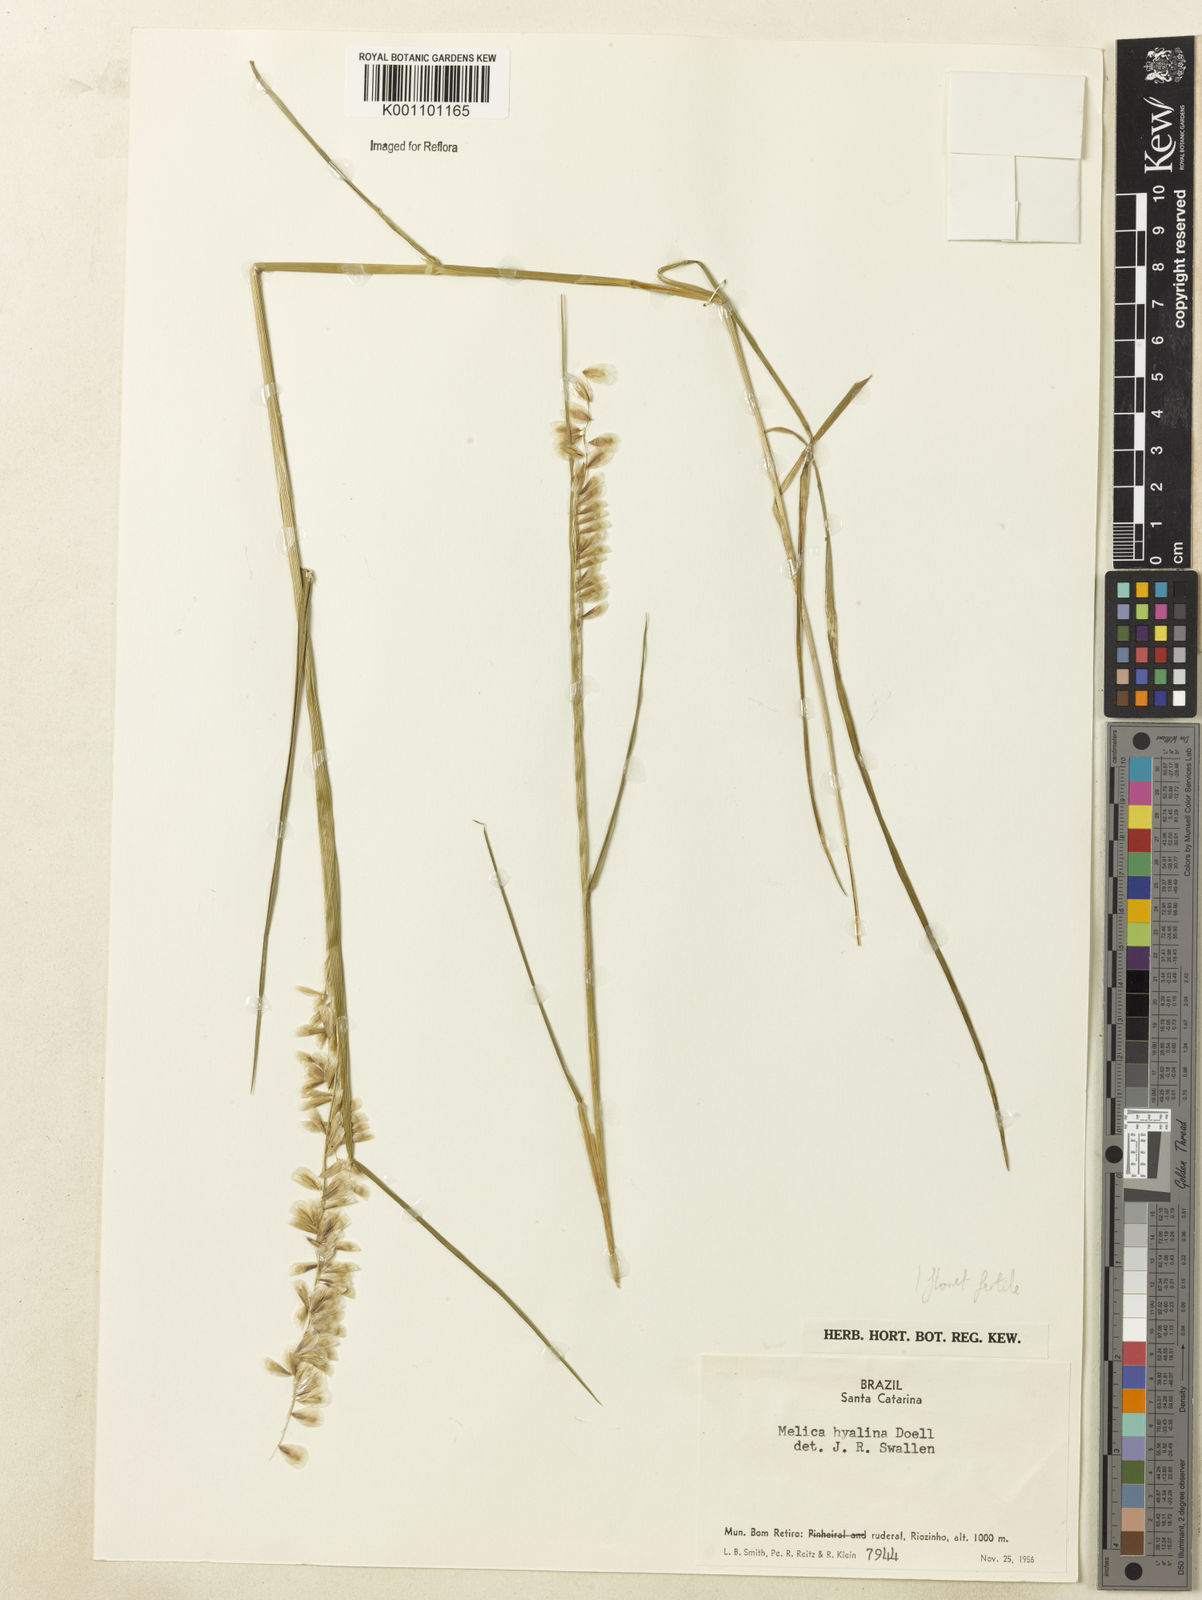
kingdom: Plantae
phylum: Tracheophyta
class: Liliopsida
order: Poales
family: Poaceae
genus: Melica
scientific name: Melica
